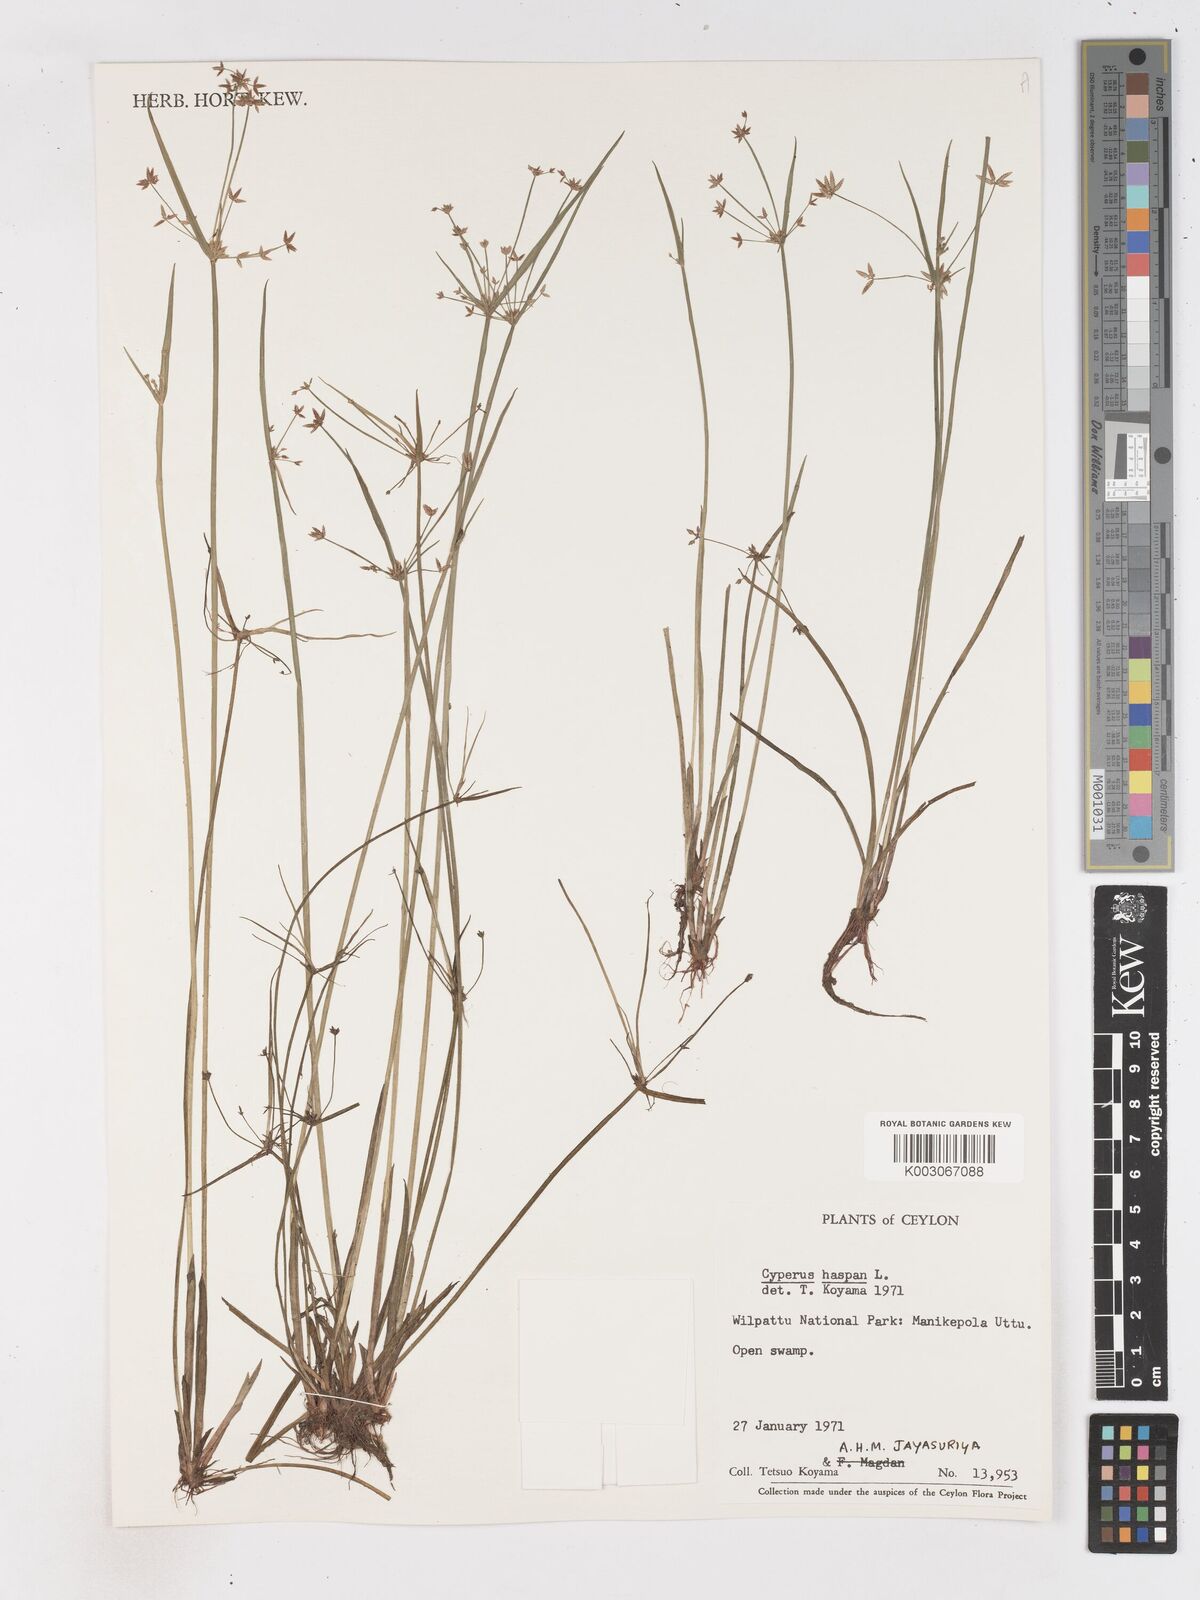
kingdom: Plantae
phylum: Tracheophyta
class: Liliopsida
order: Poales
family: Cyperaceae
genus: Cyperus
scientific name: Cyperus haspan
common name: Haspan flatsedge
